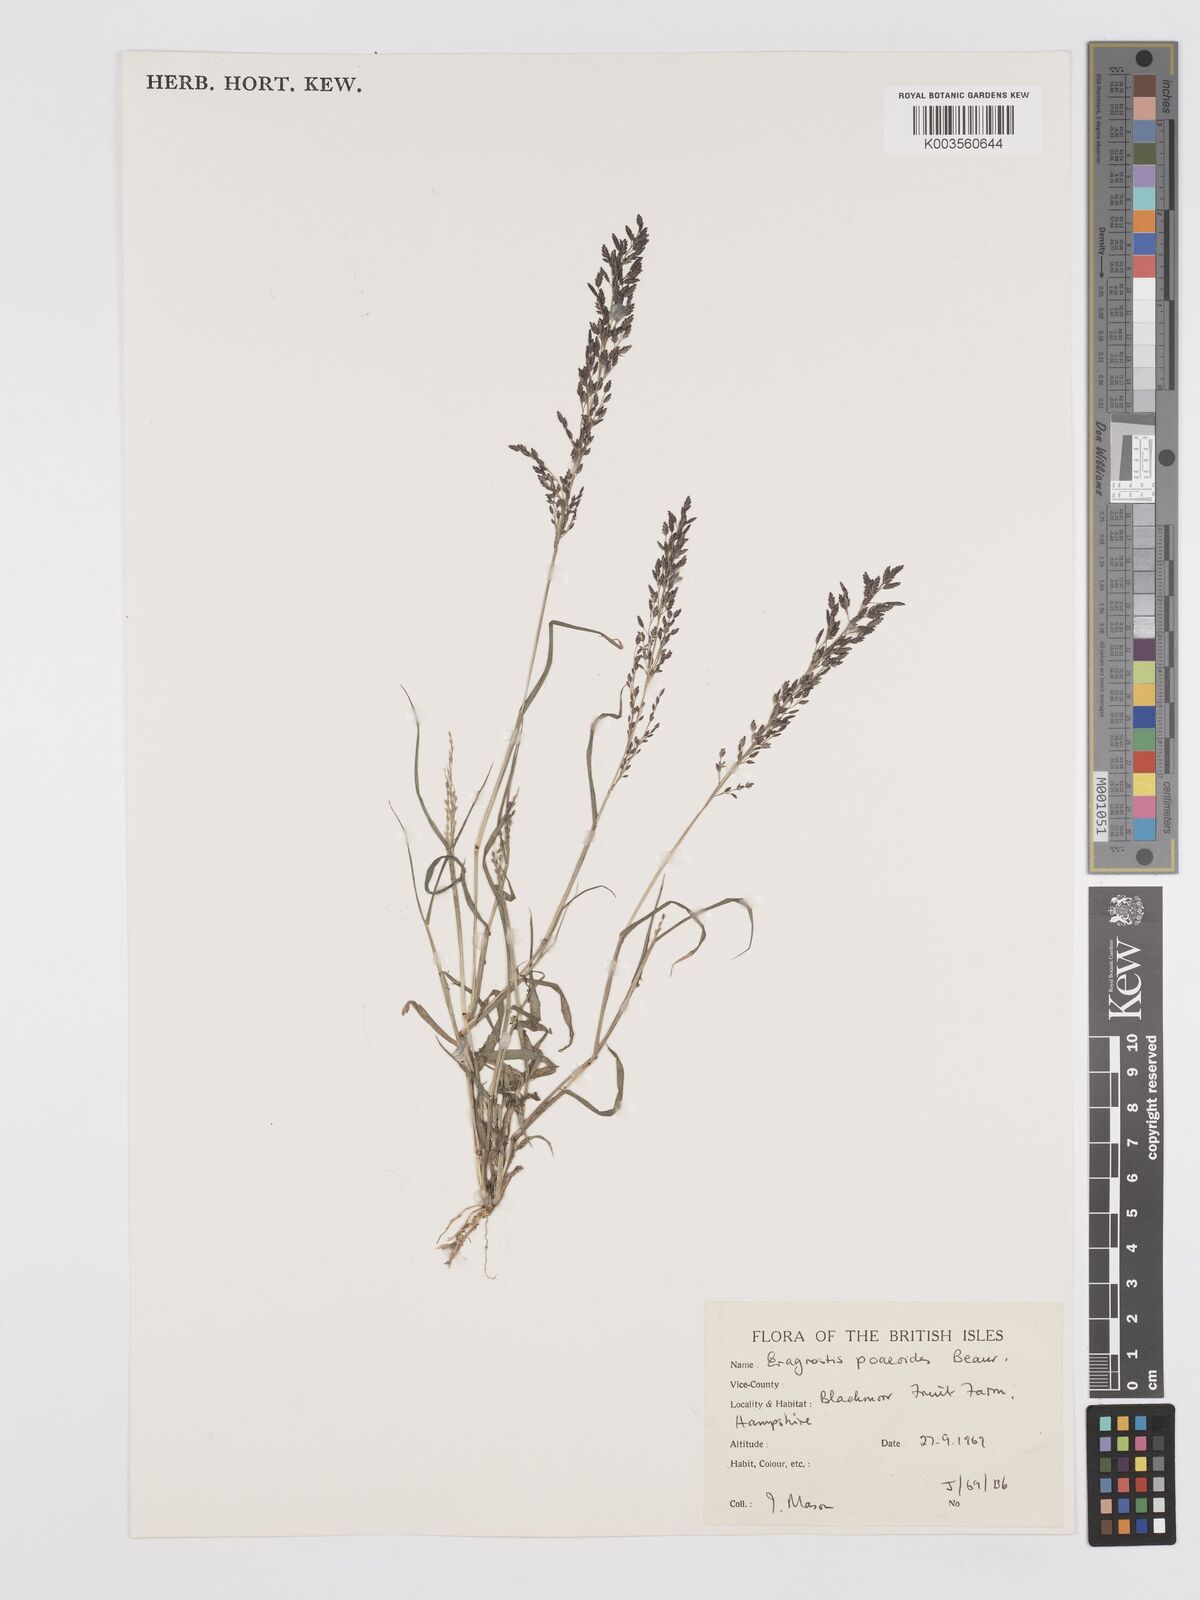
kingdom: Plantae
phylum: Tracheophyta
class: Liliopsida
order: Poales
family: Poaceae
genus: Eragrostis
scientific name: Eragrostis minor
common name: Small love-grass
